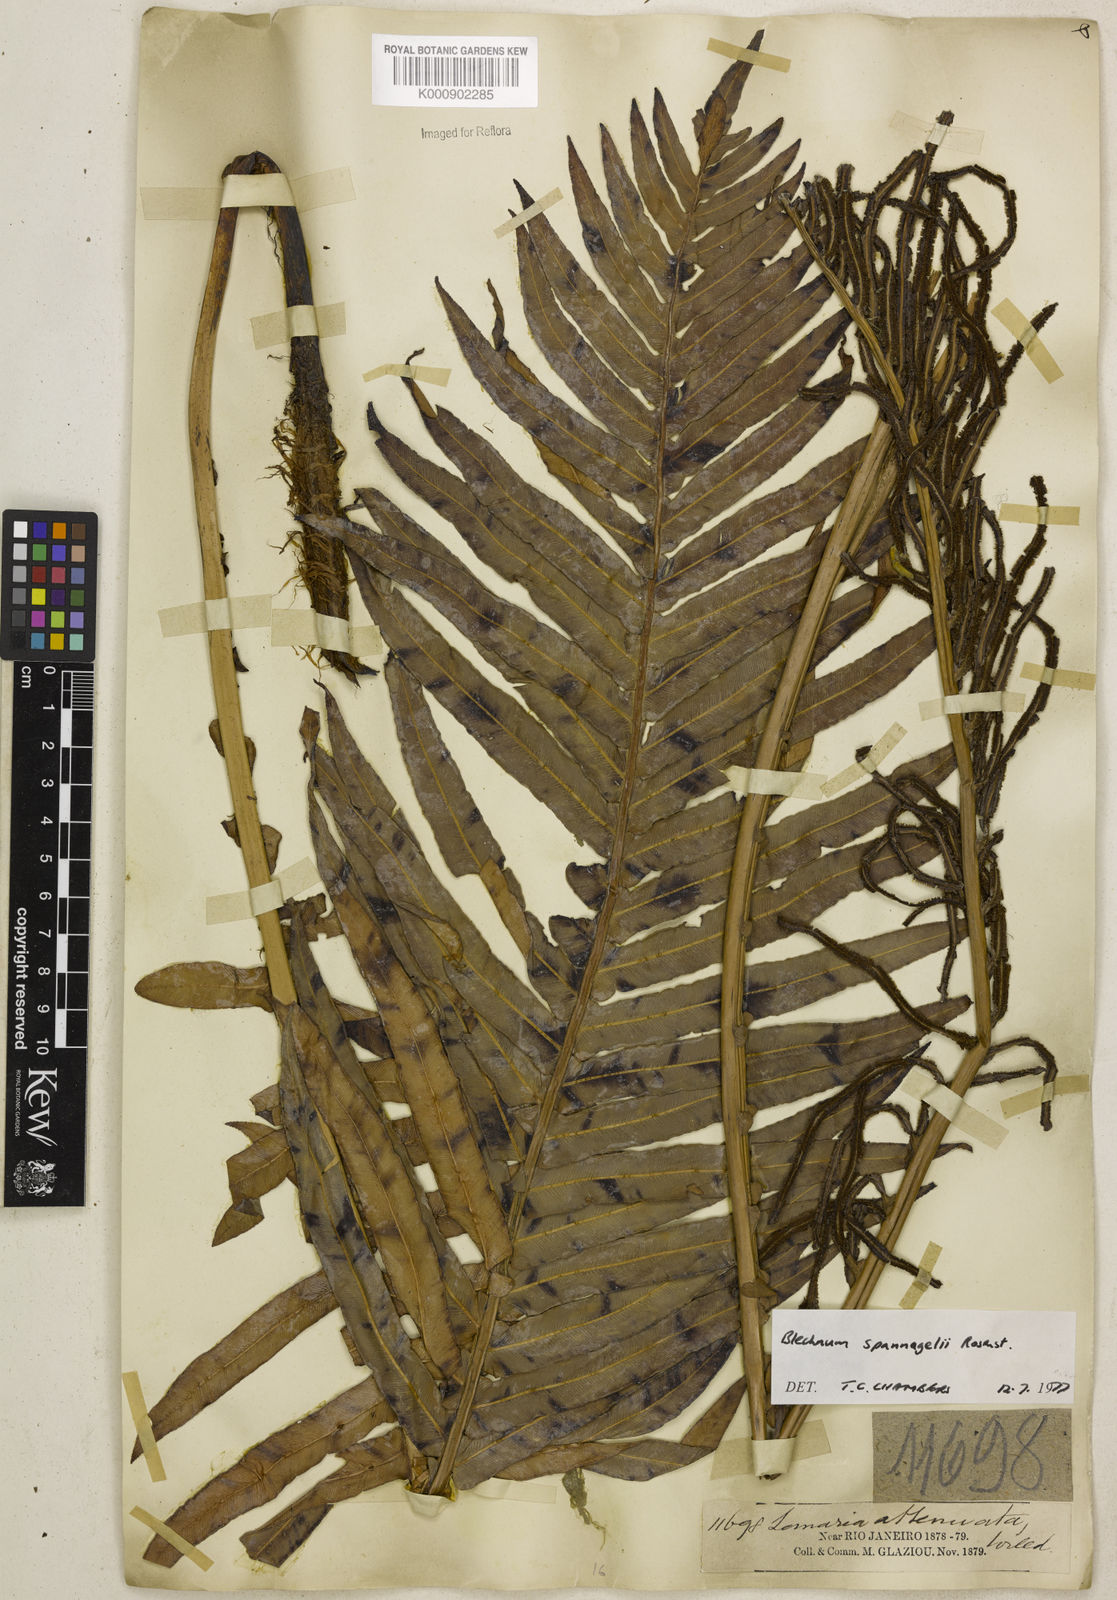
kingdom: Plantae
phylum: Tracheophyta
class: Polypodiopsida
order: Polypodiales
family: Blechnaceae
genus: Lomaria
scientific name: Lomaria spannagelii
